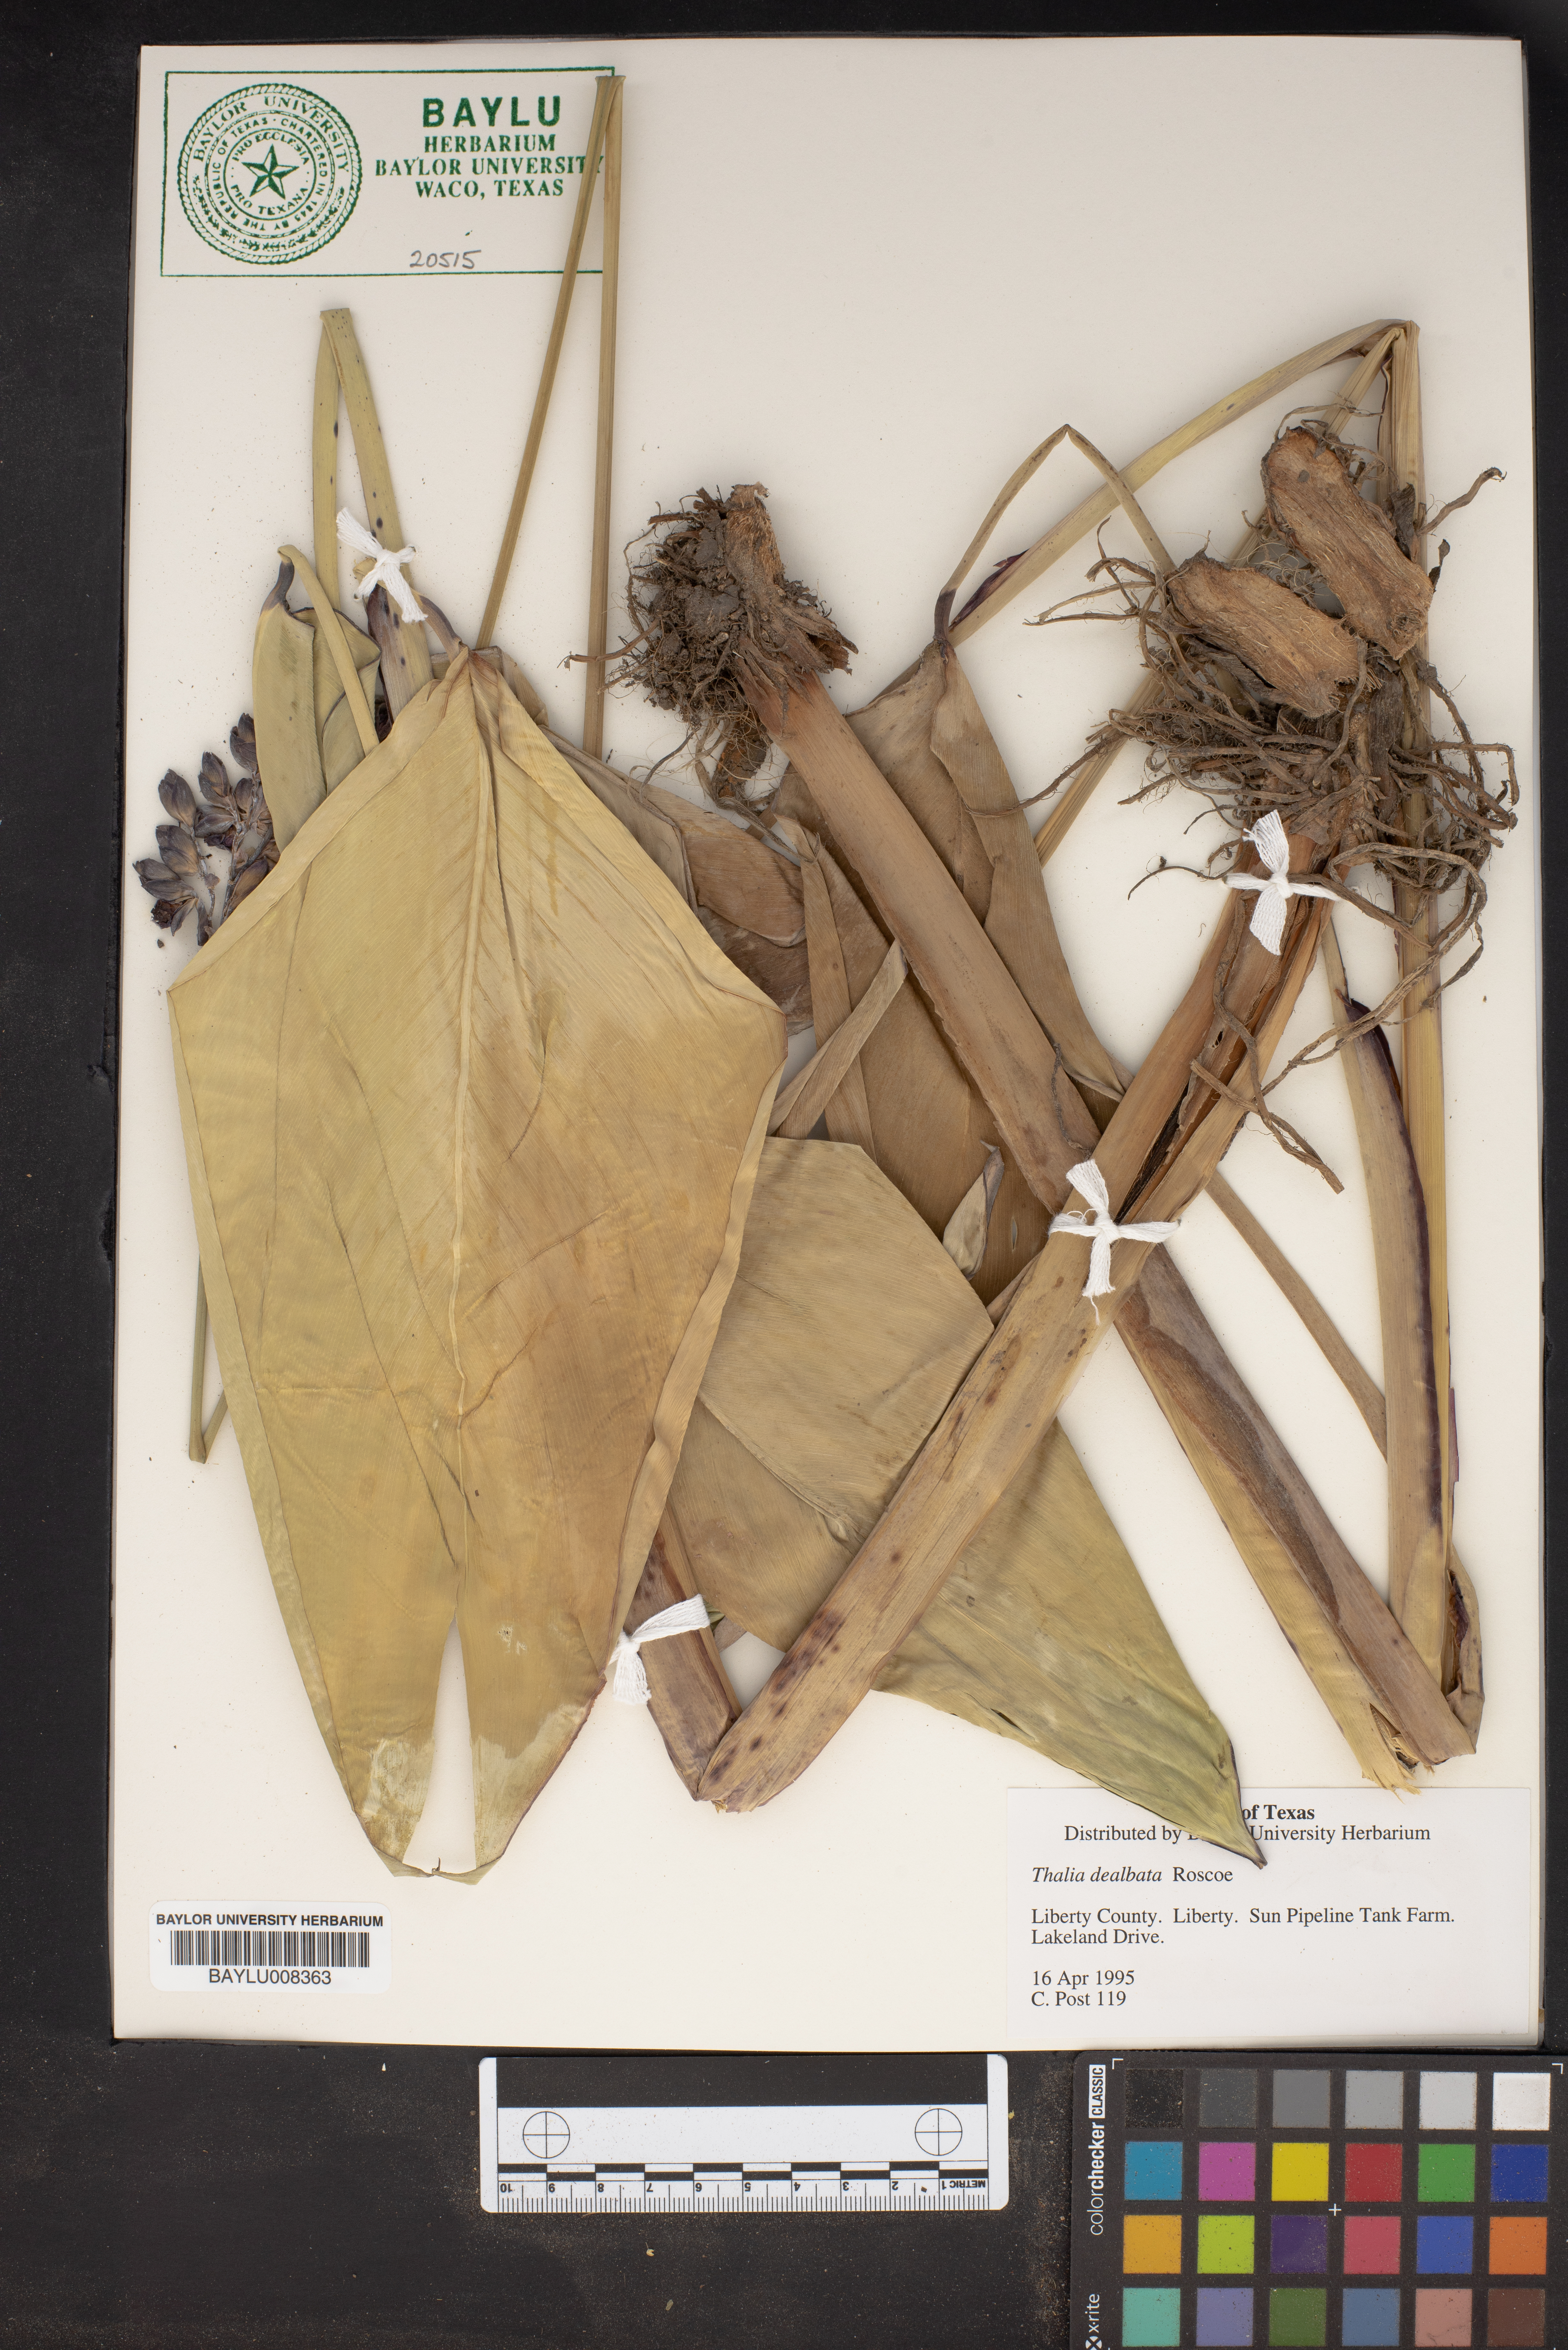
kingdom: Plantae
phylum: Tracheophyta
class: Liliopsida
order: Zingiberales
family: Marantaceae
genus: Thalia
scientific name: Thalia dealbata
